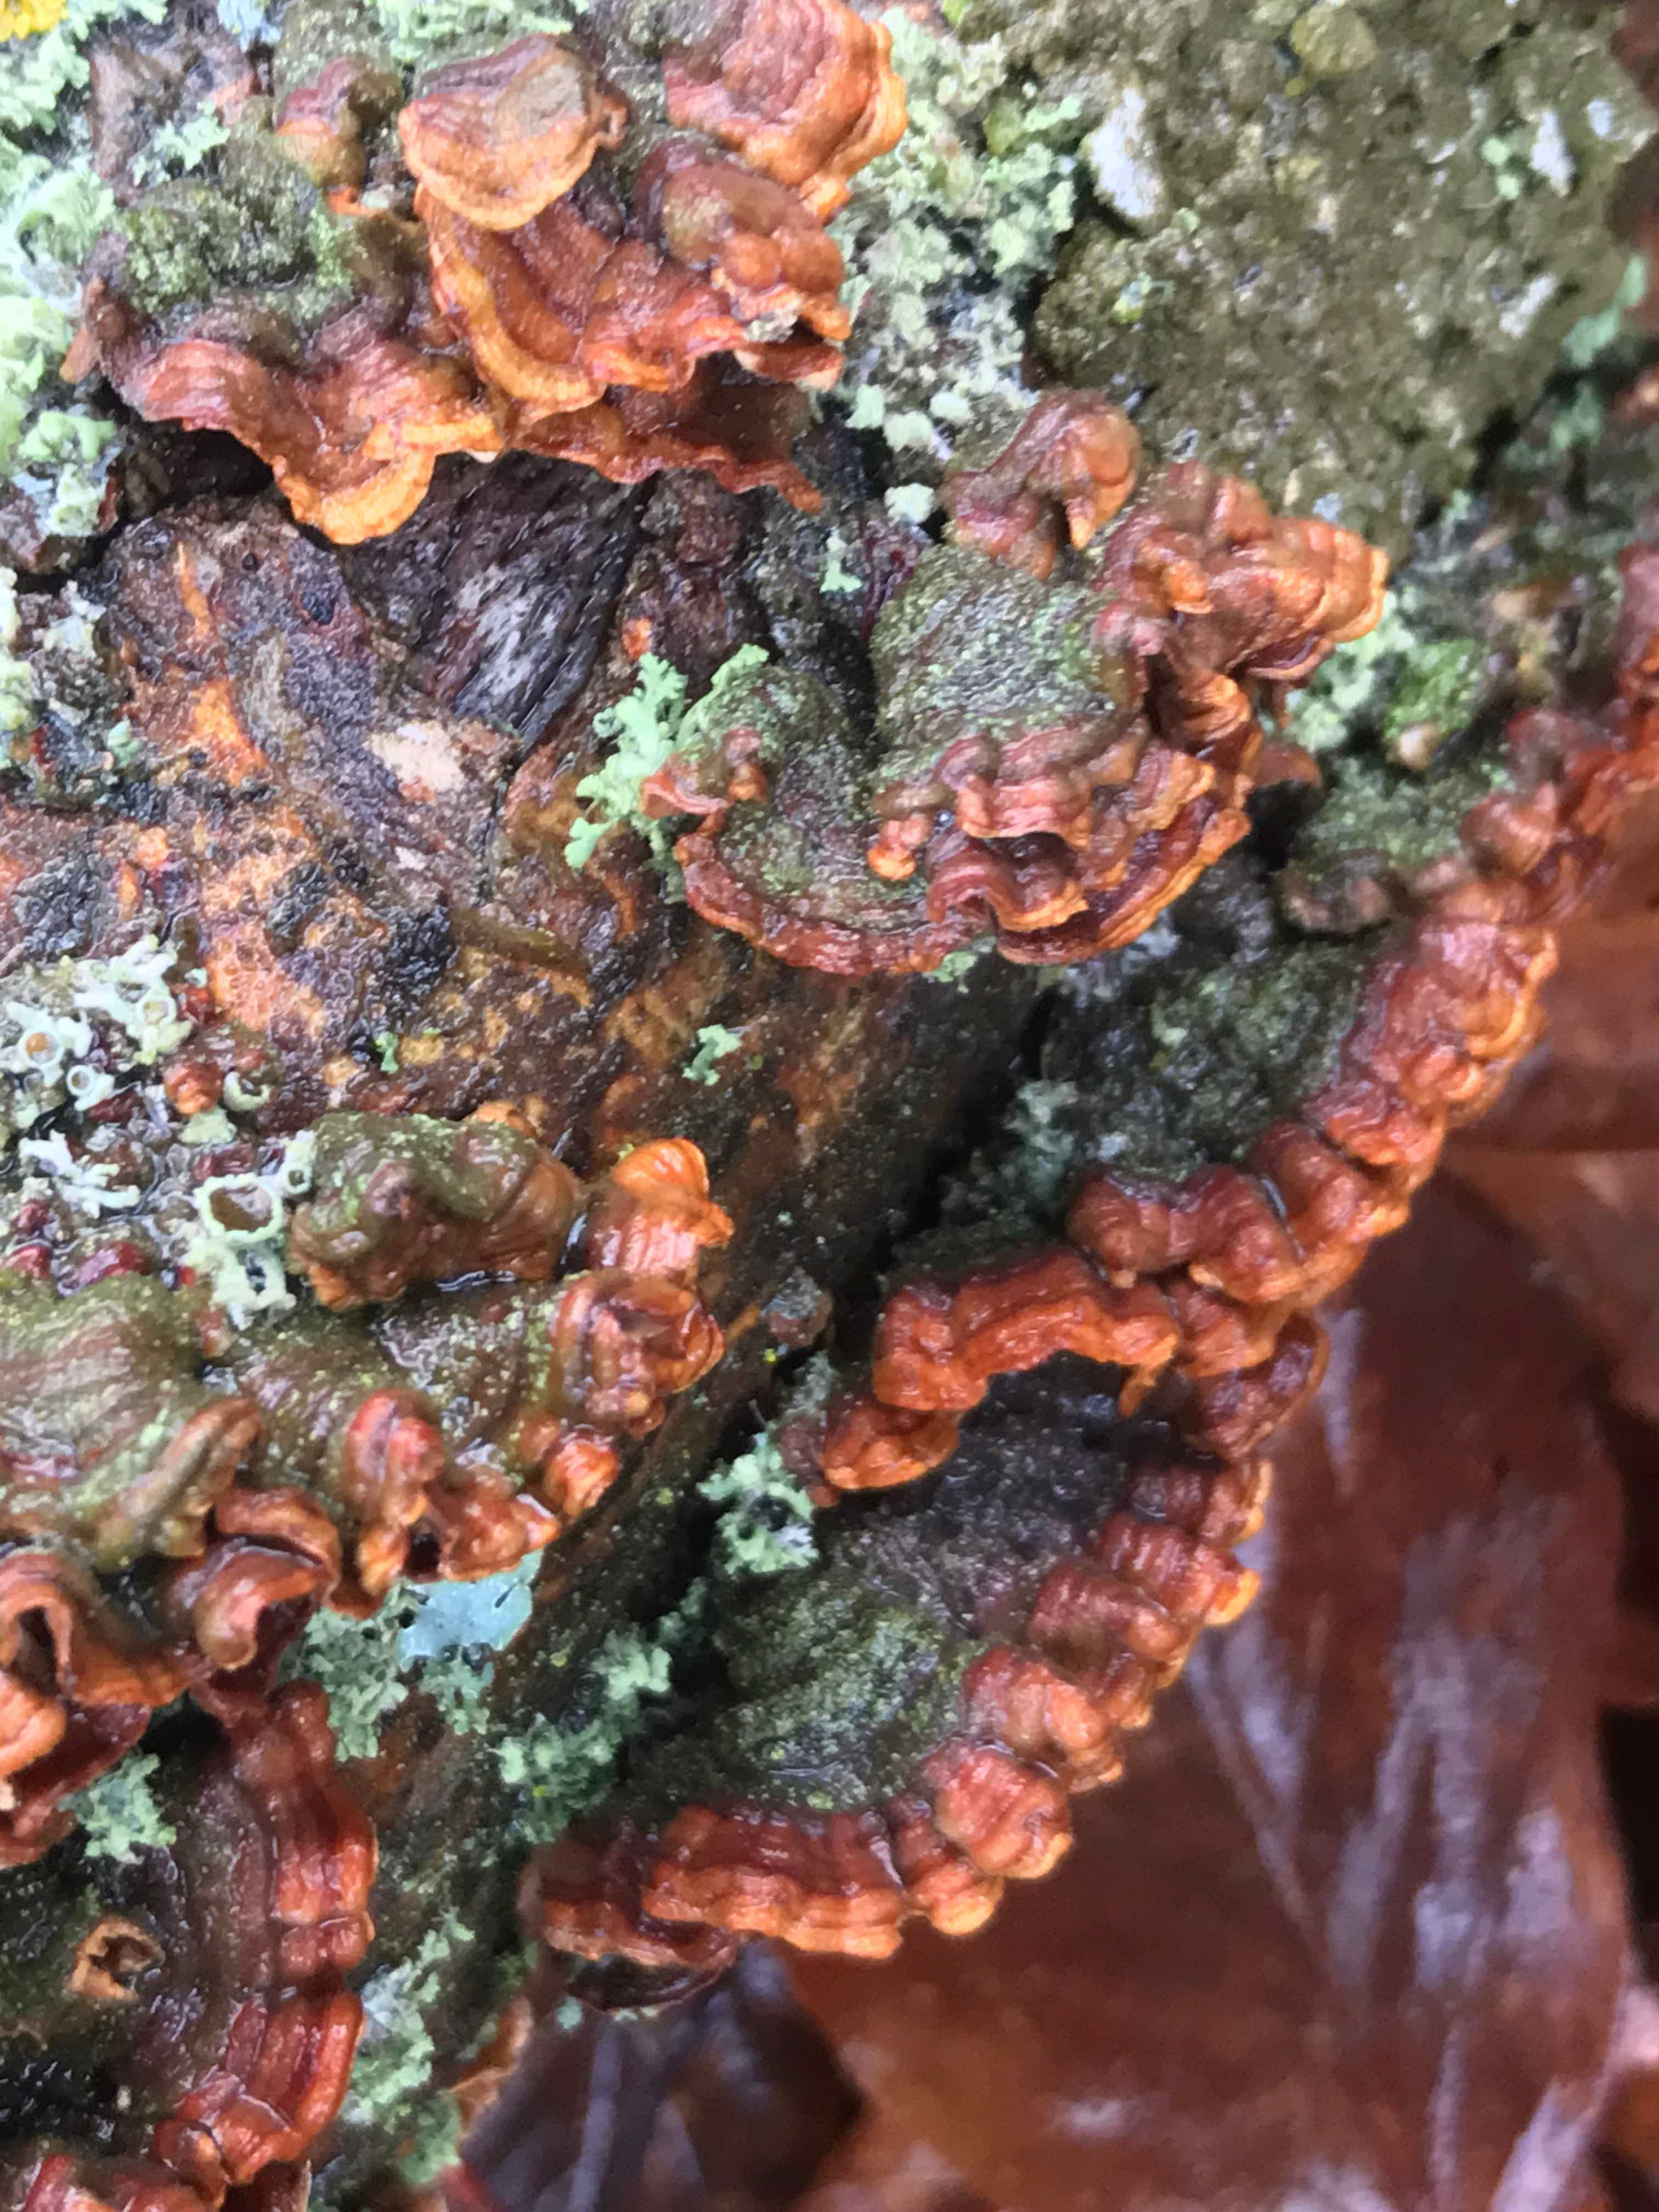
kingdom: Fungi
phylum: Basidiomycota
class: Agaricomycetes
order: Russulales
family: Stereaceae
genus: Stereum
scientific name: Stereum subtomentosum
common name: smuk lædersvamp
